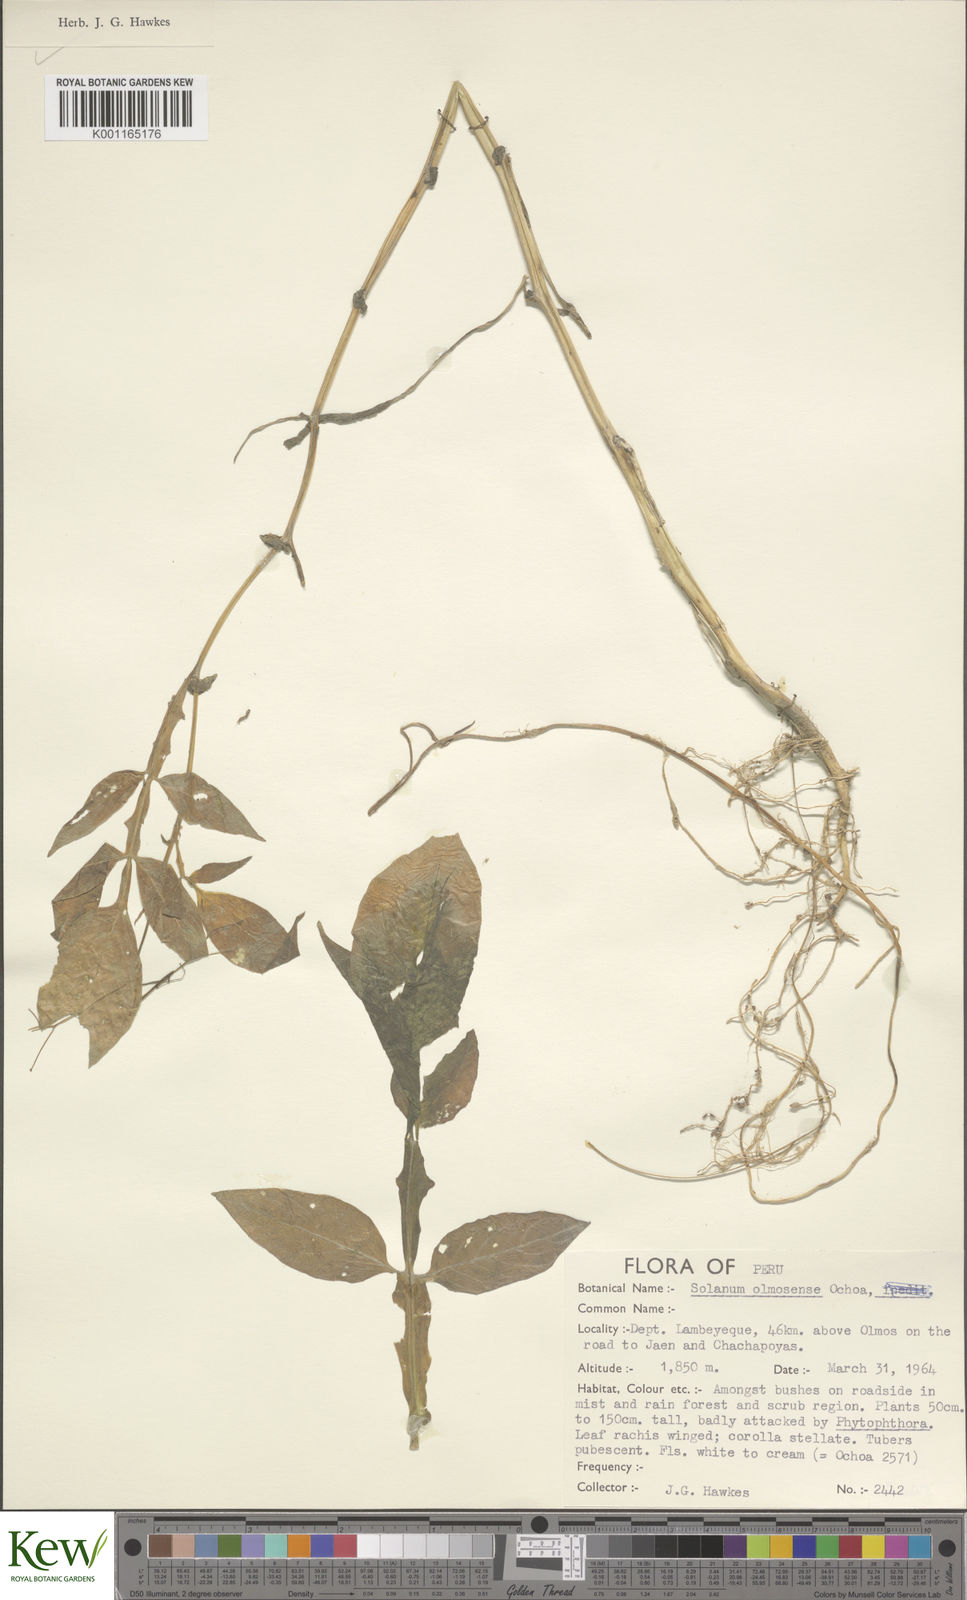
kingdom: Plantae
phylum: Tracheophyta
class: Magnoliopsida
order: Solanales
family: Solanaceae
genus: Solanum
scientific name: Solanum olmosense
